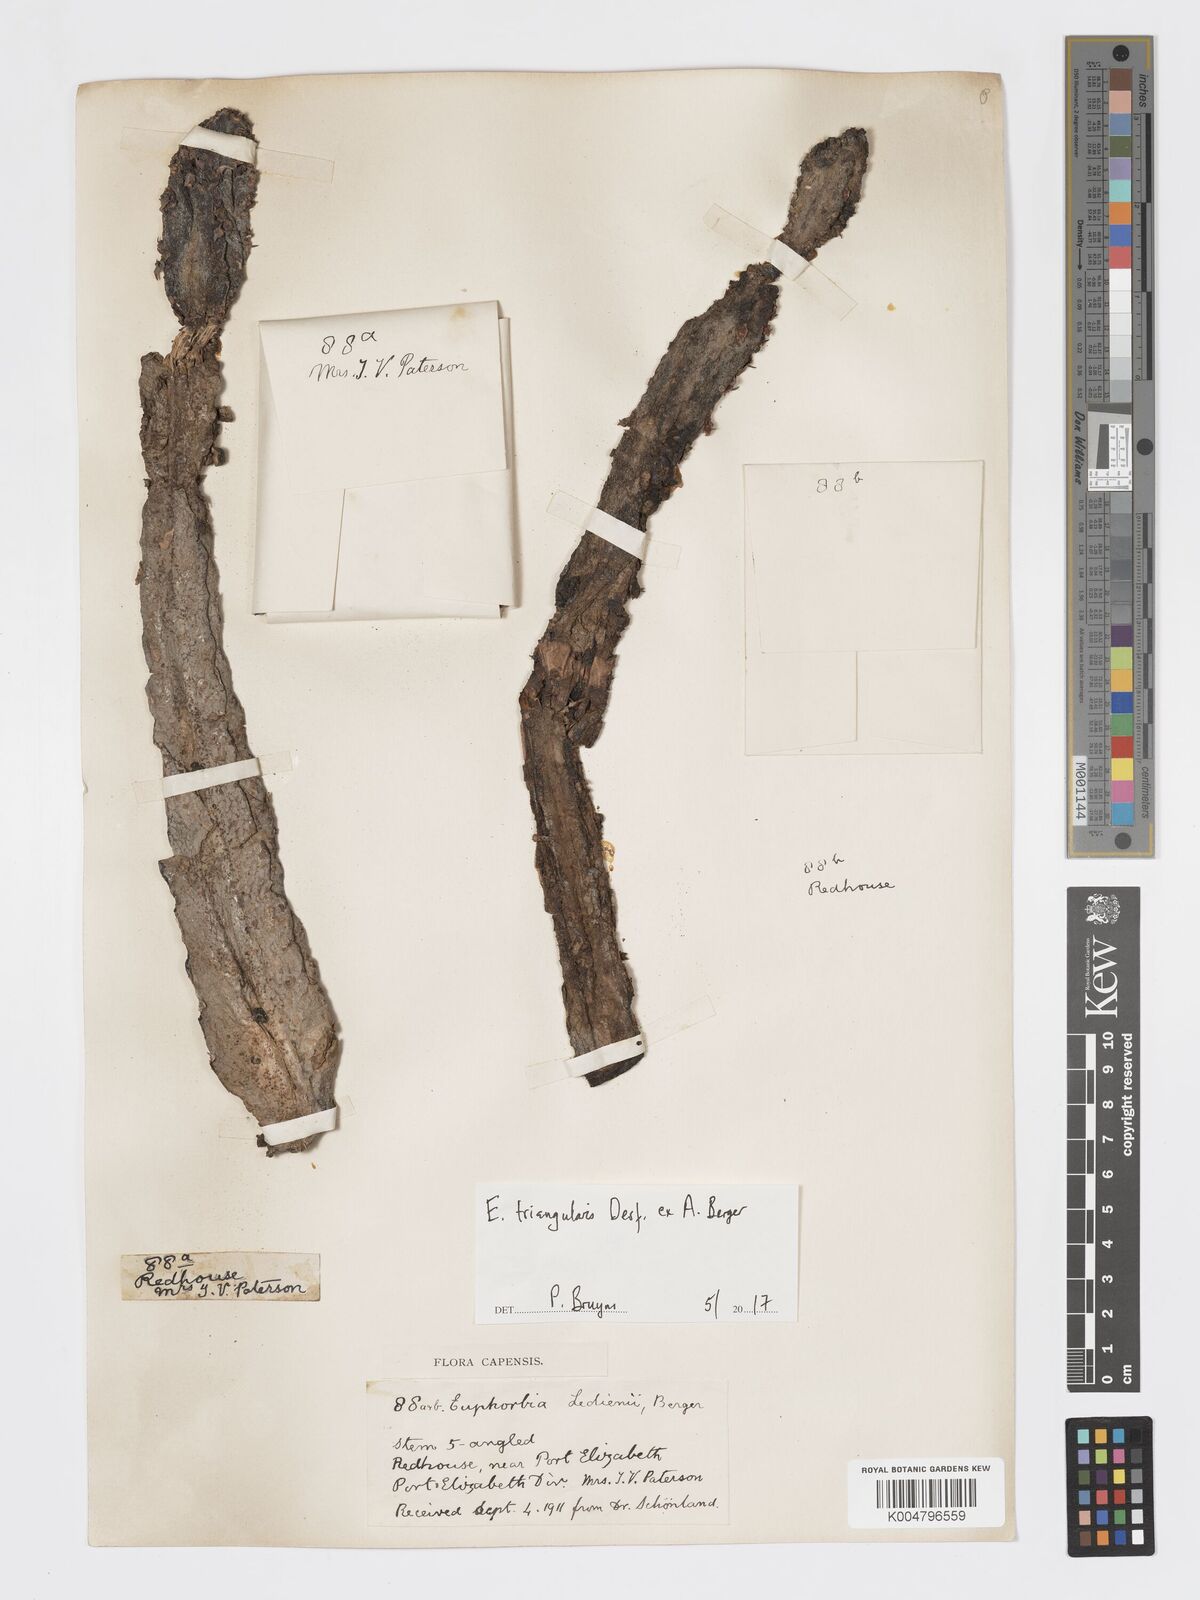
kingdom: Plantae
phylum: Tracheophyta
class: Magnoliopsida
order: Malpighiales
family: Euphorbiaceae
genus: Euphorbia
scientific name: Euphorbia triangularis
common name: Chandelier tree
